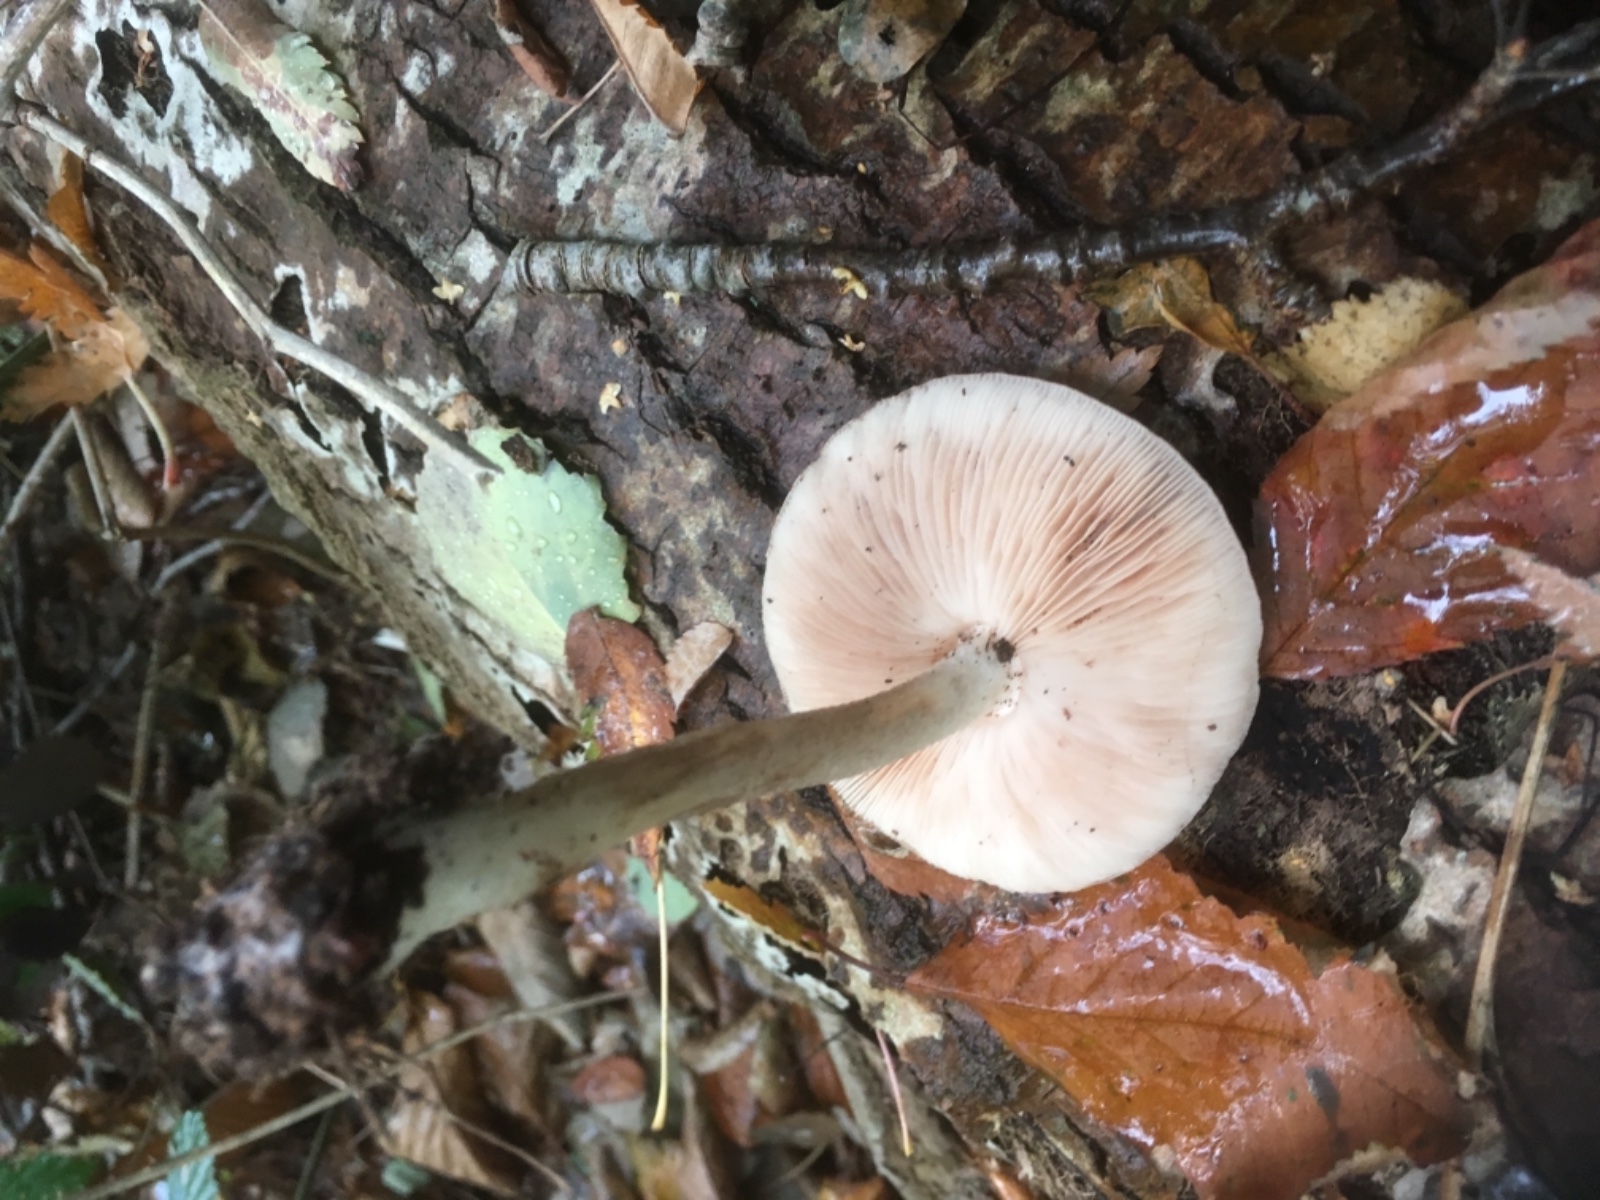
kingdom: Fungi
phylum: Basidiomycota
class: Agaricomycetes
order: Agaricales
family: Pluteaceae
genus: Pluteus
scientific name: Pluteus cervinus
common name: sodfarvet skærmhat
